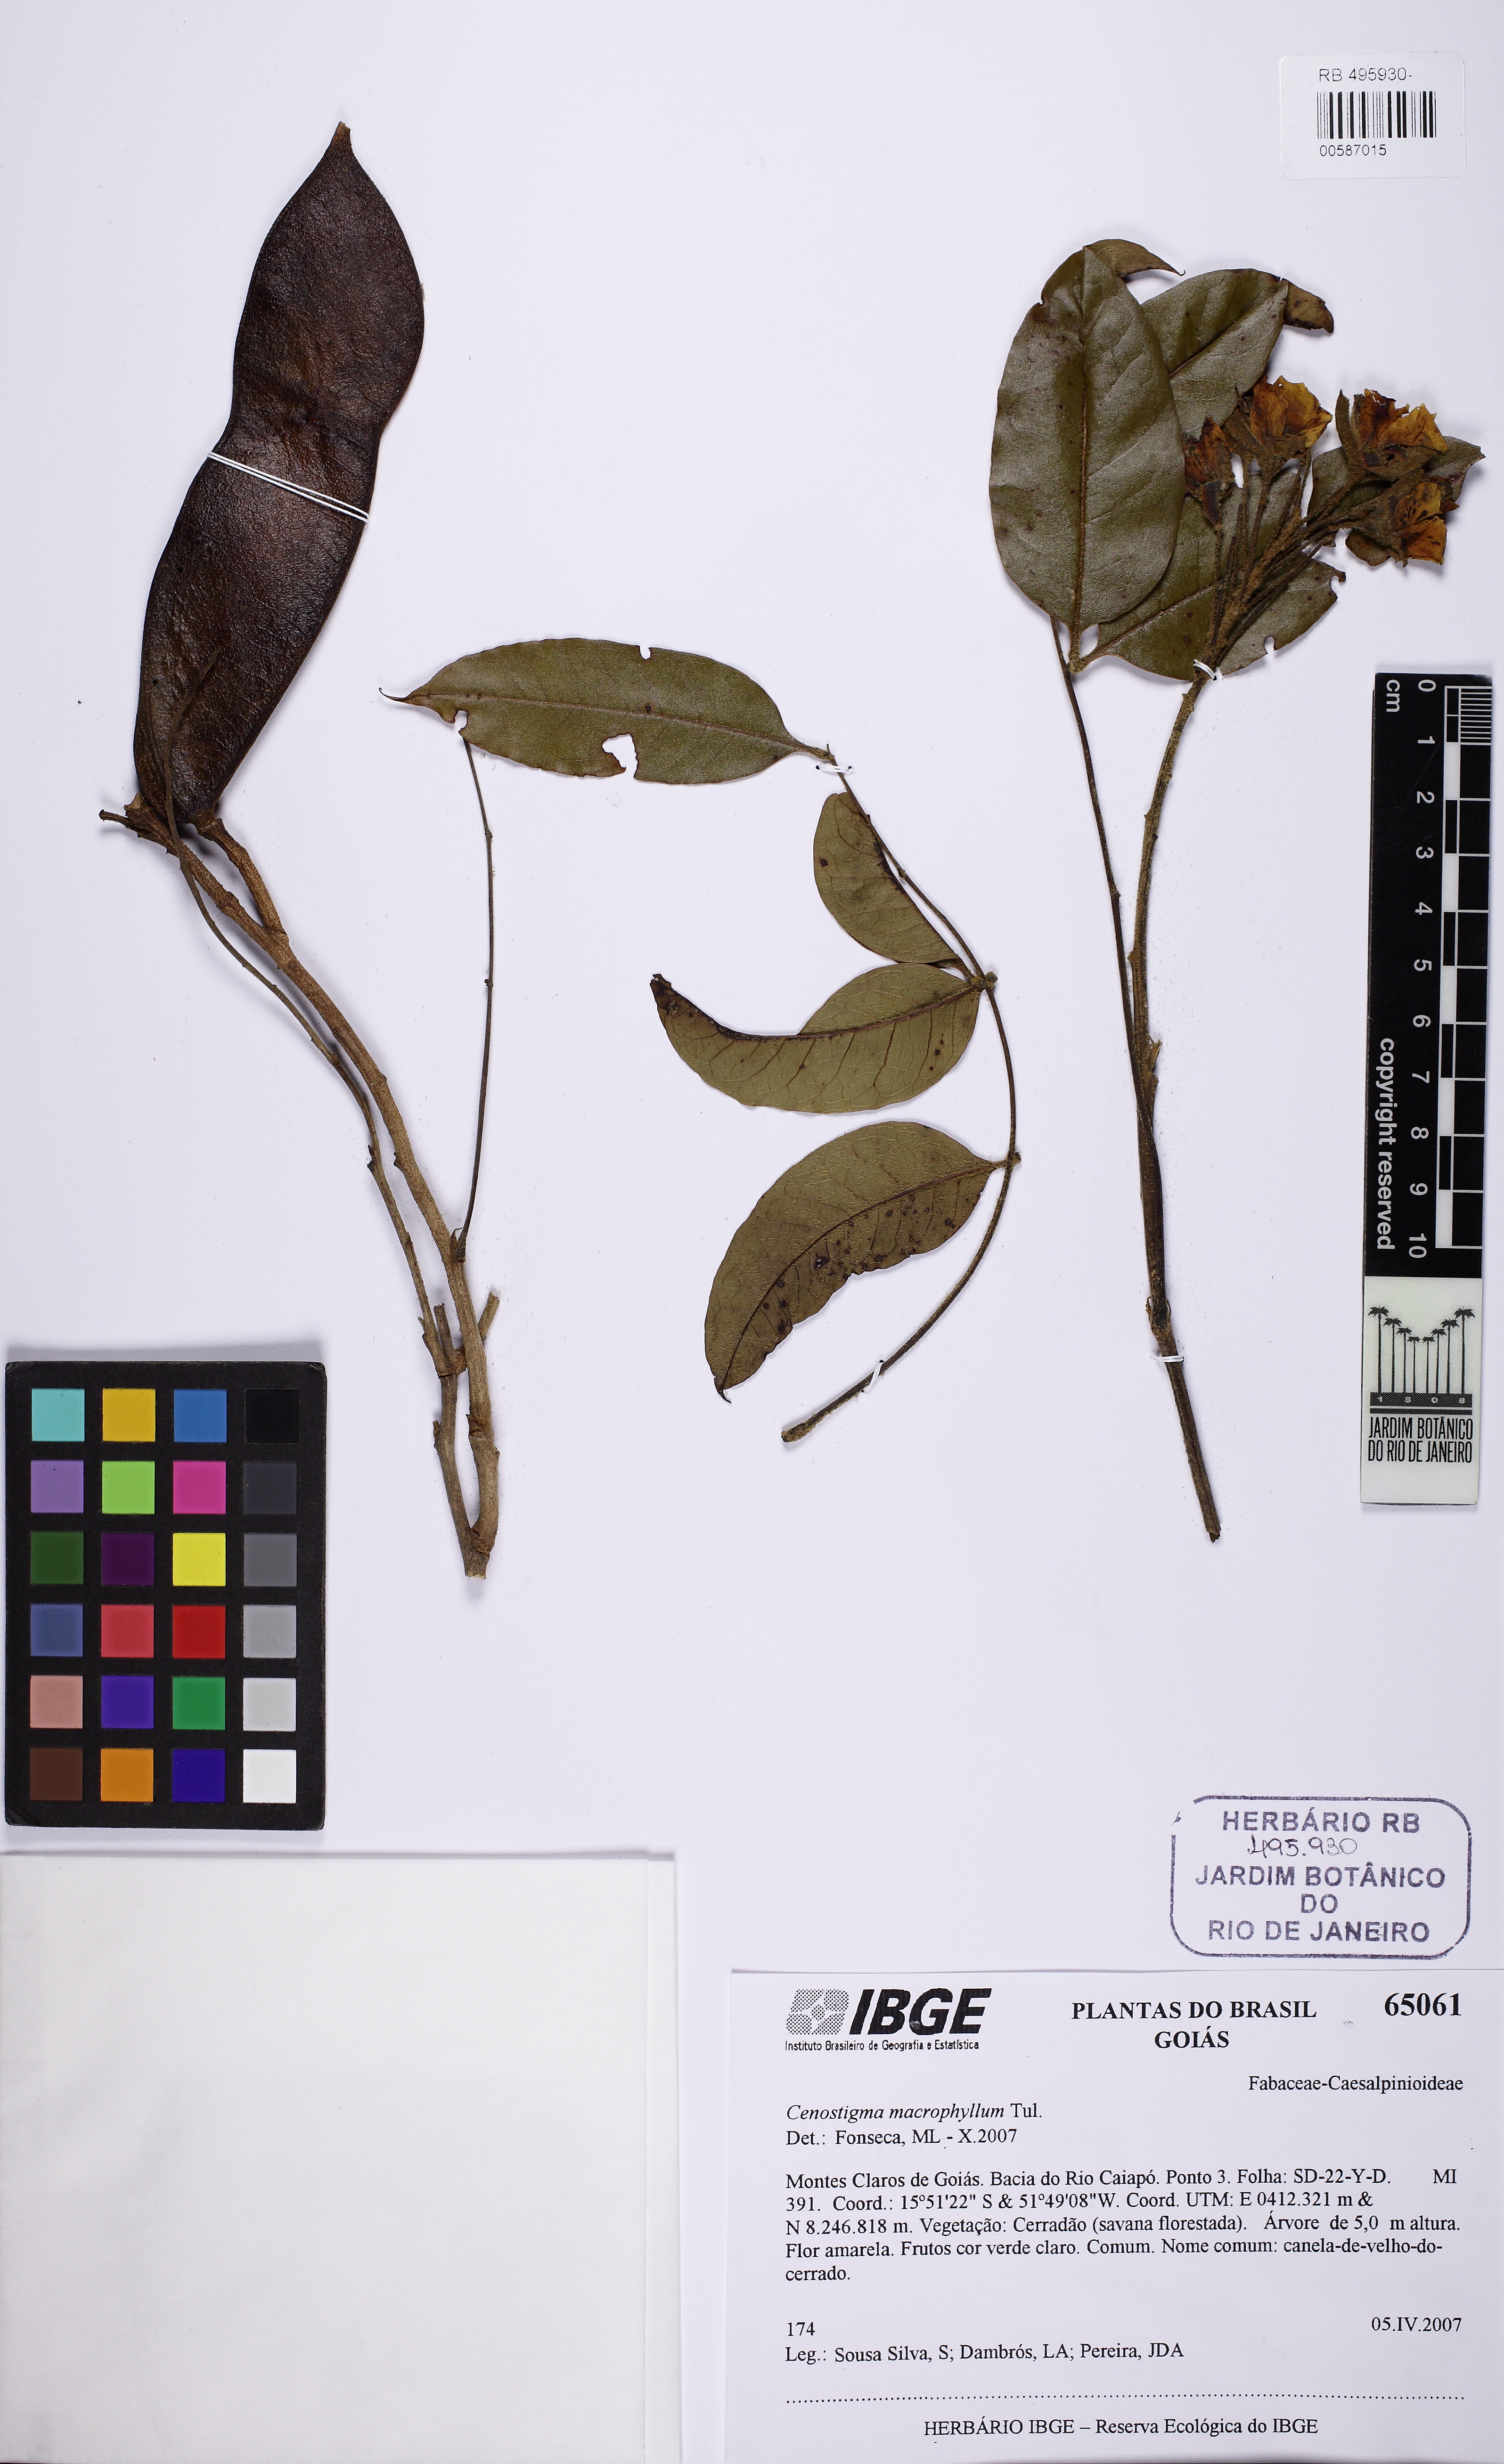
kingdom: Plantae
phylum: Tracheophyta
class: Magnoliopsida
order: Fabales
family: Fabaceae
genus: Cenostigma
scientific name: Cenostigma macrophyllum
